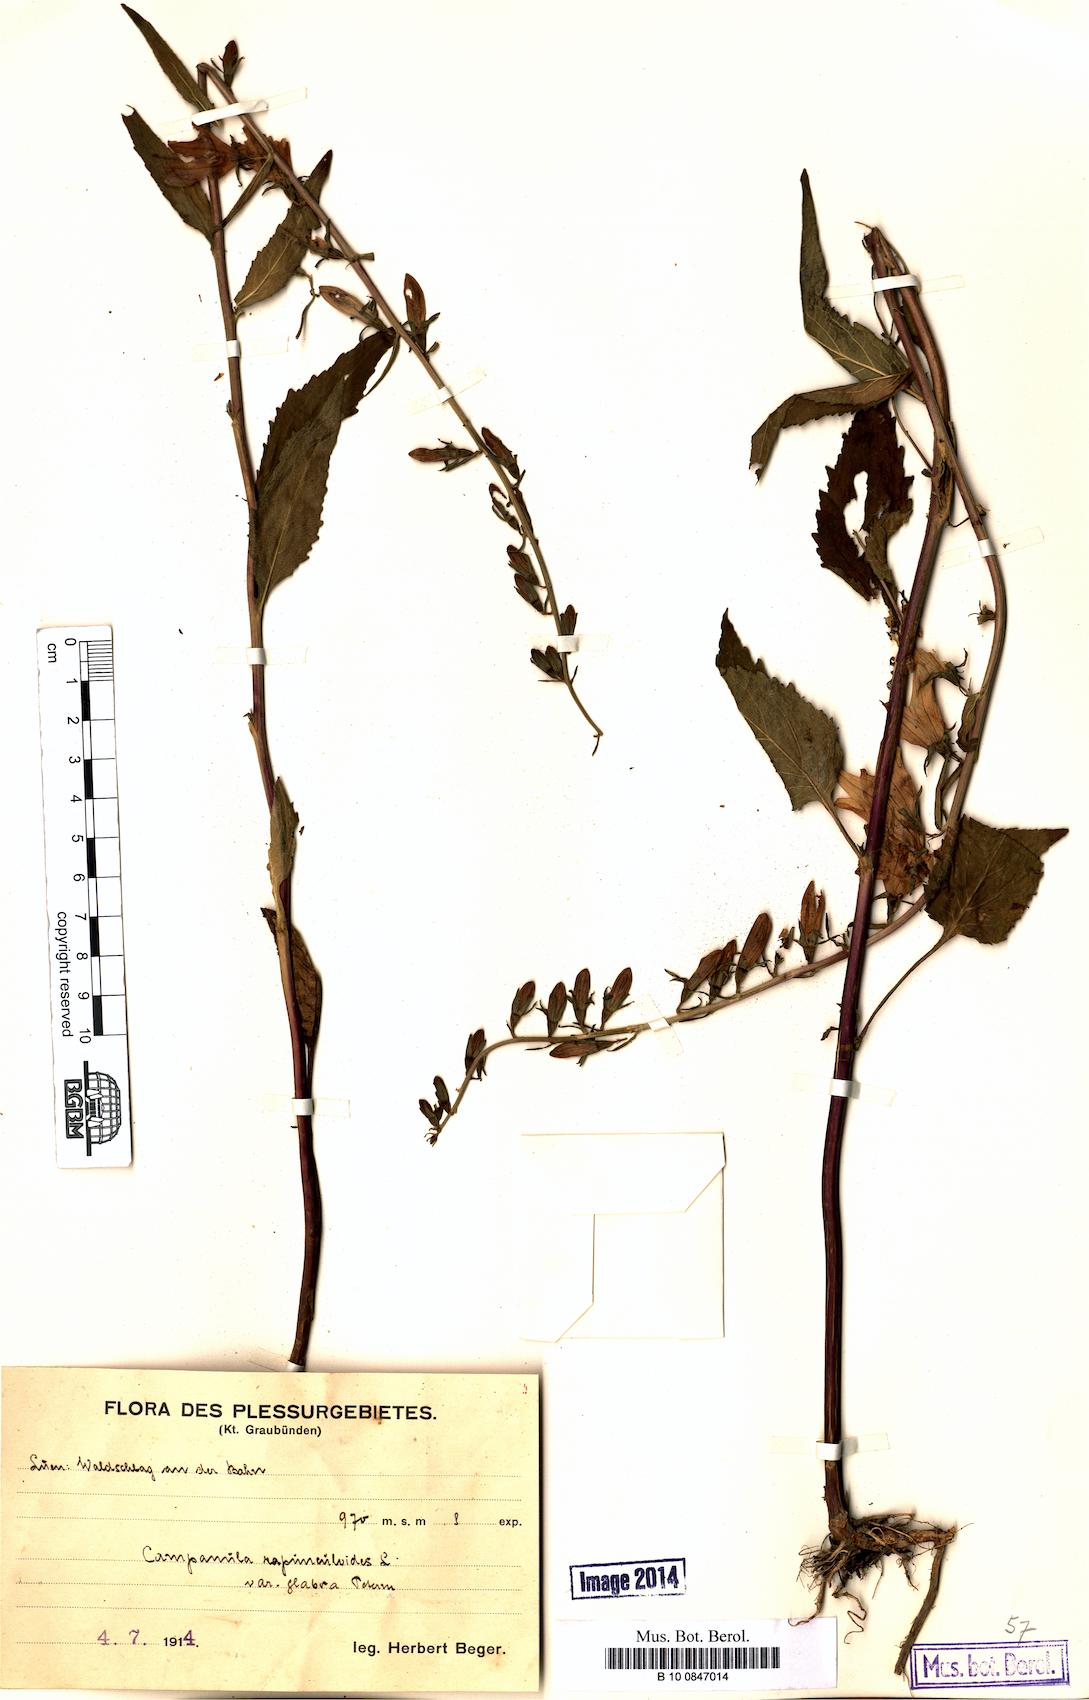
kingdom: Plantae
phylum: Tracheophyta
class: Magnoliopsida
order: Asterales
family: Campanulaceae
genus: Campanula
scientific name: Campanula rapunculoides
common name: Creeping bellflower
